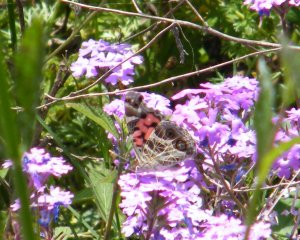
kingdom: Animalia
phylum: Arthropoda
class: Insecta
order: Lepidoptera
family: Nymphalidae
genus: Vanessa
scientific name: Vanessa virginiensis
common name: American Lady
